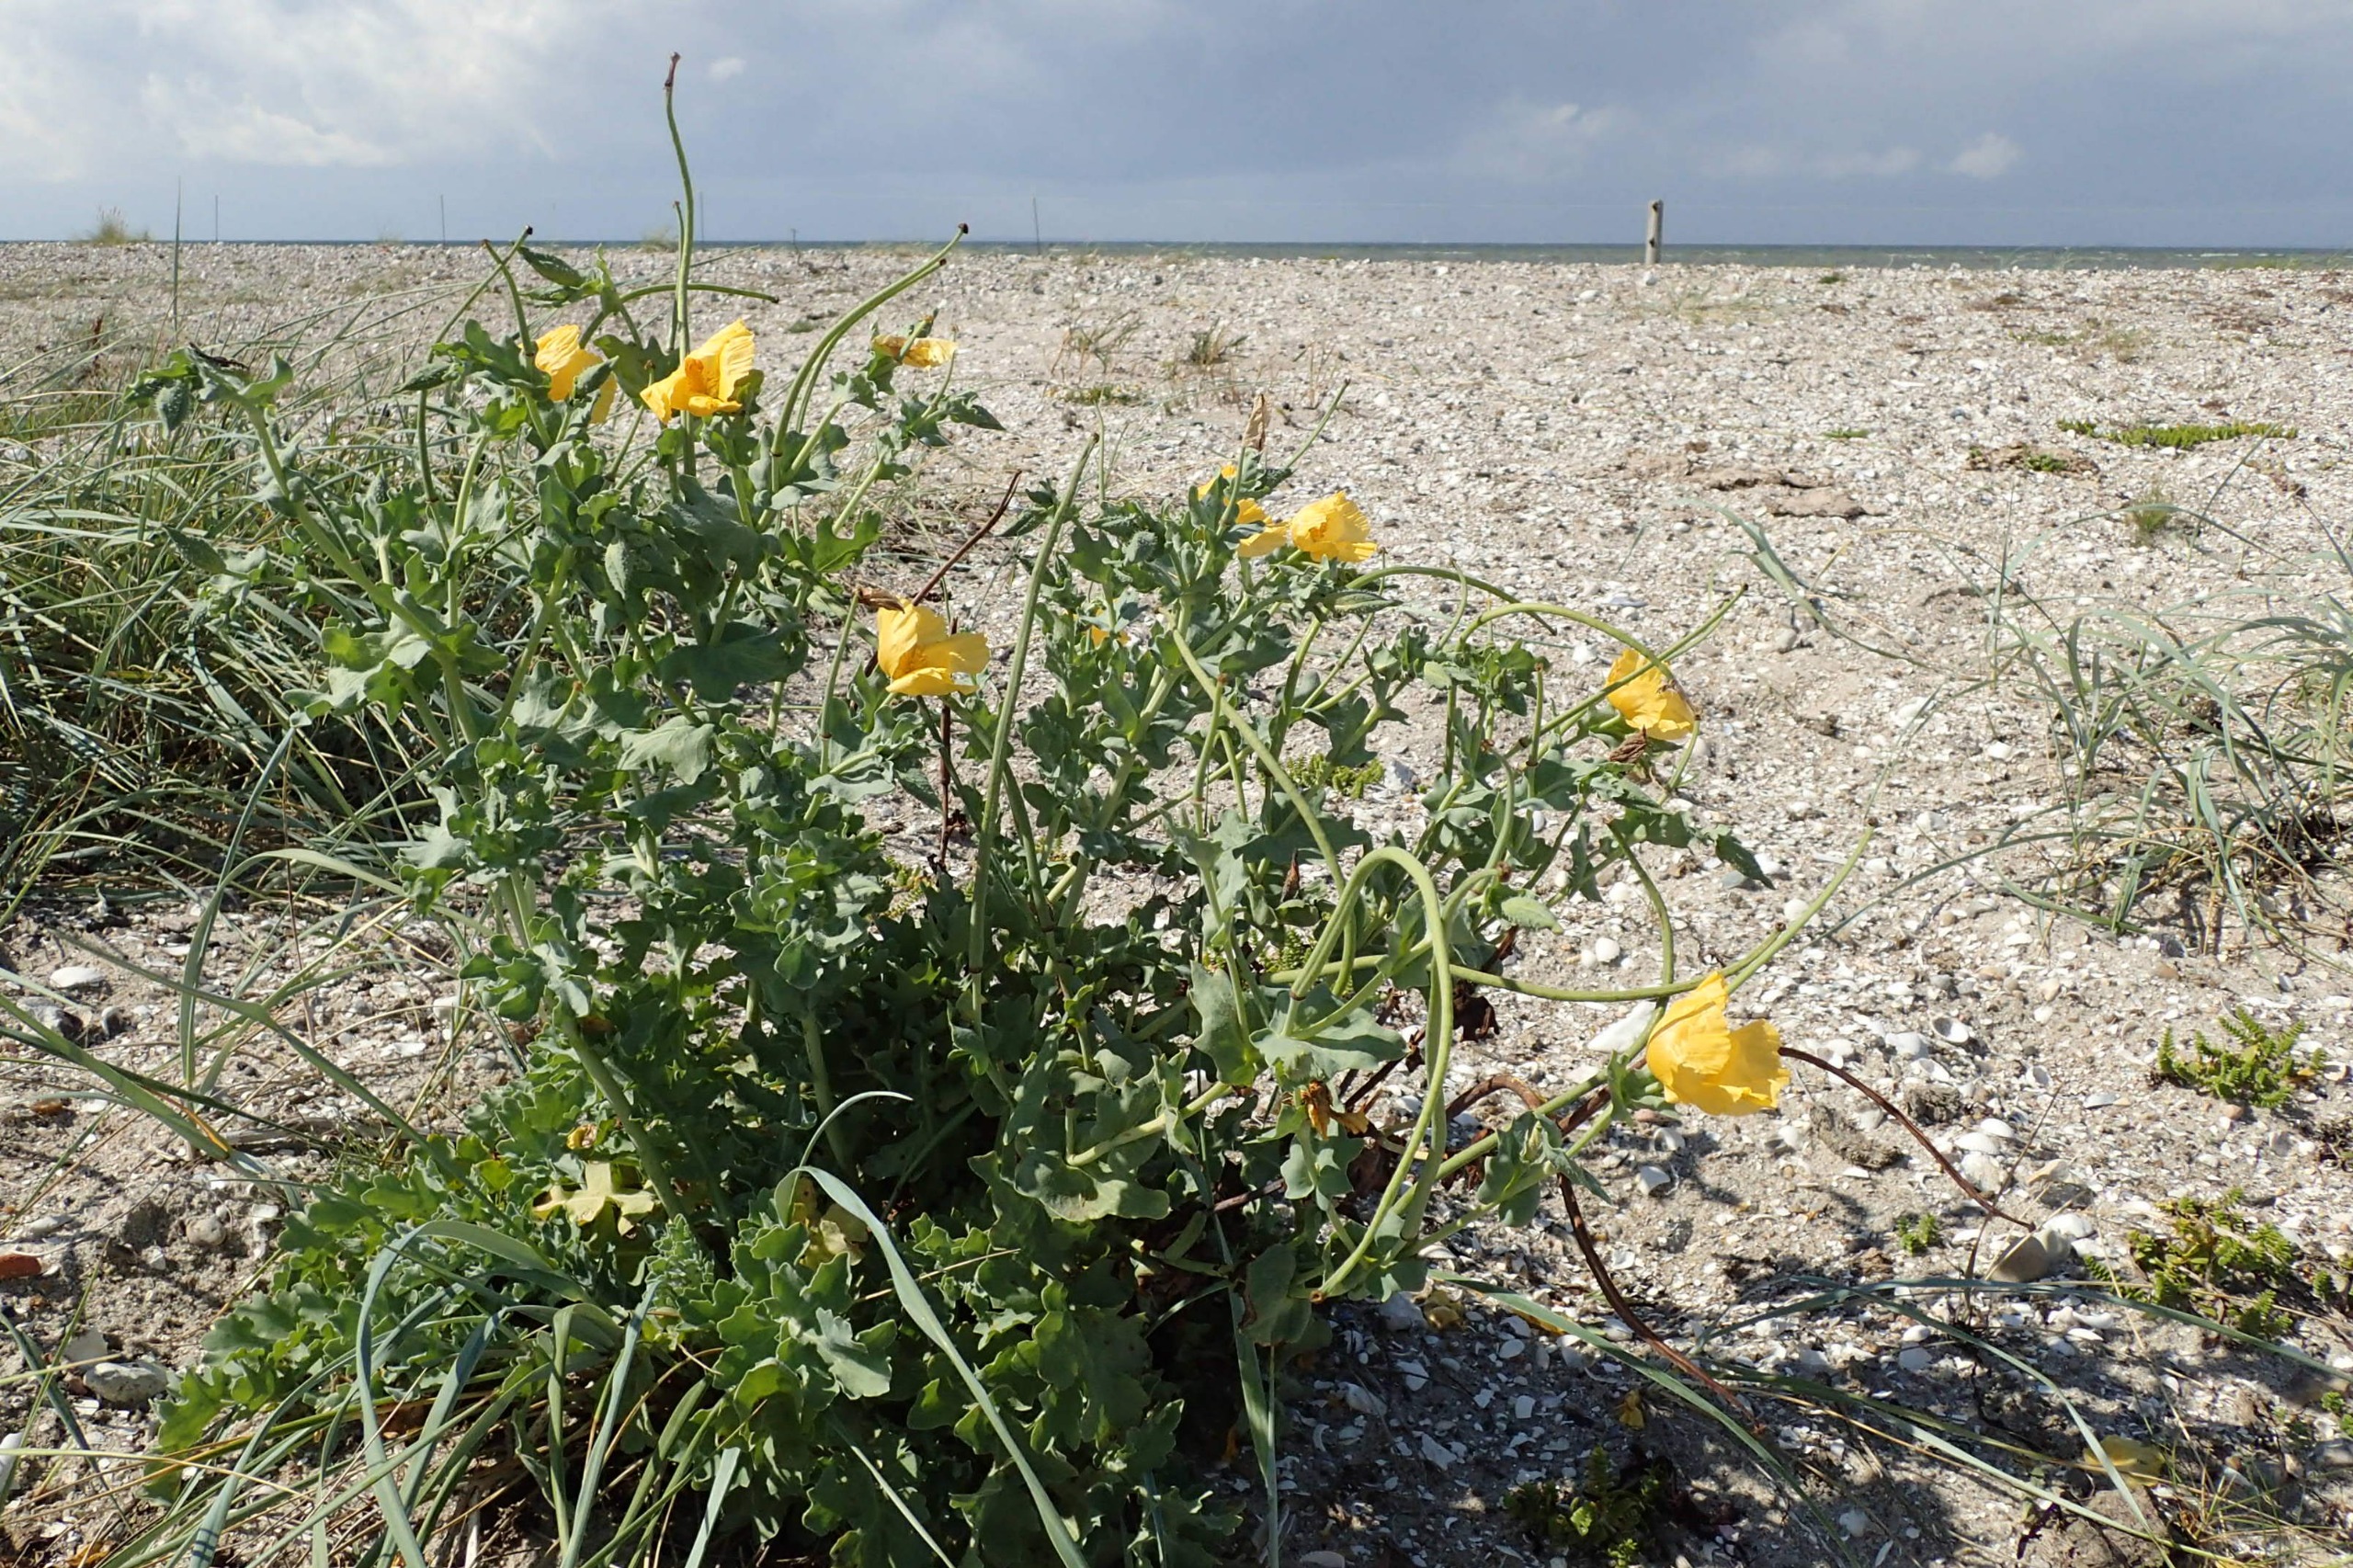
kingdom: Plantae
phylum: Tracheophyta
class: Magnoliopsida
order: Ranunculales
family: Papaveraceae
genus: Glaucium
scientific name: Glaucium flavum
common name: Hornskulpe
